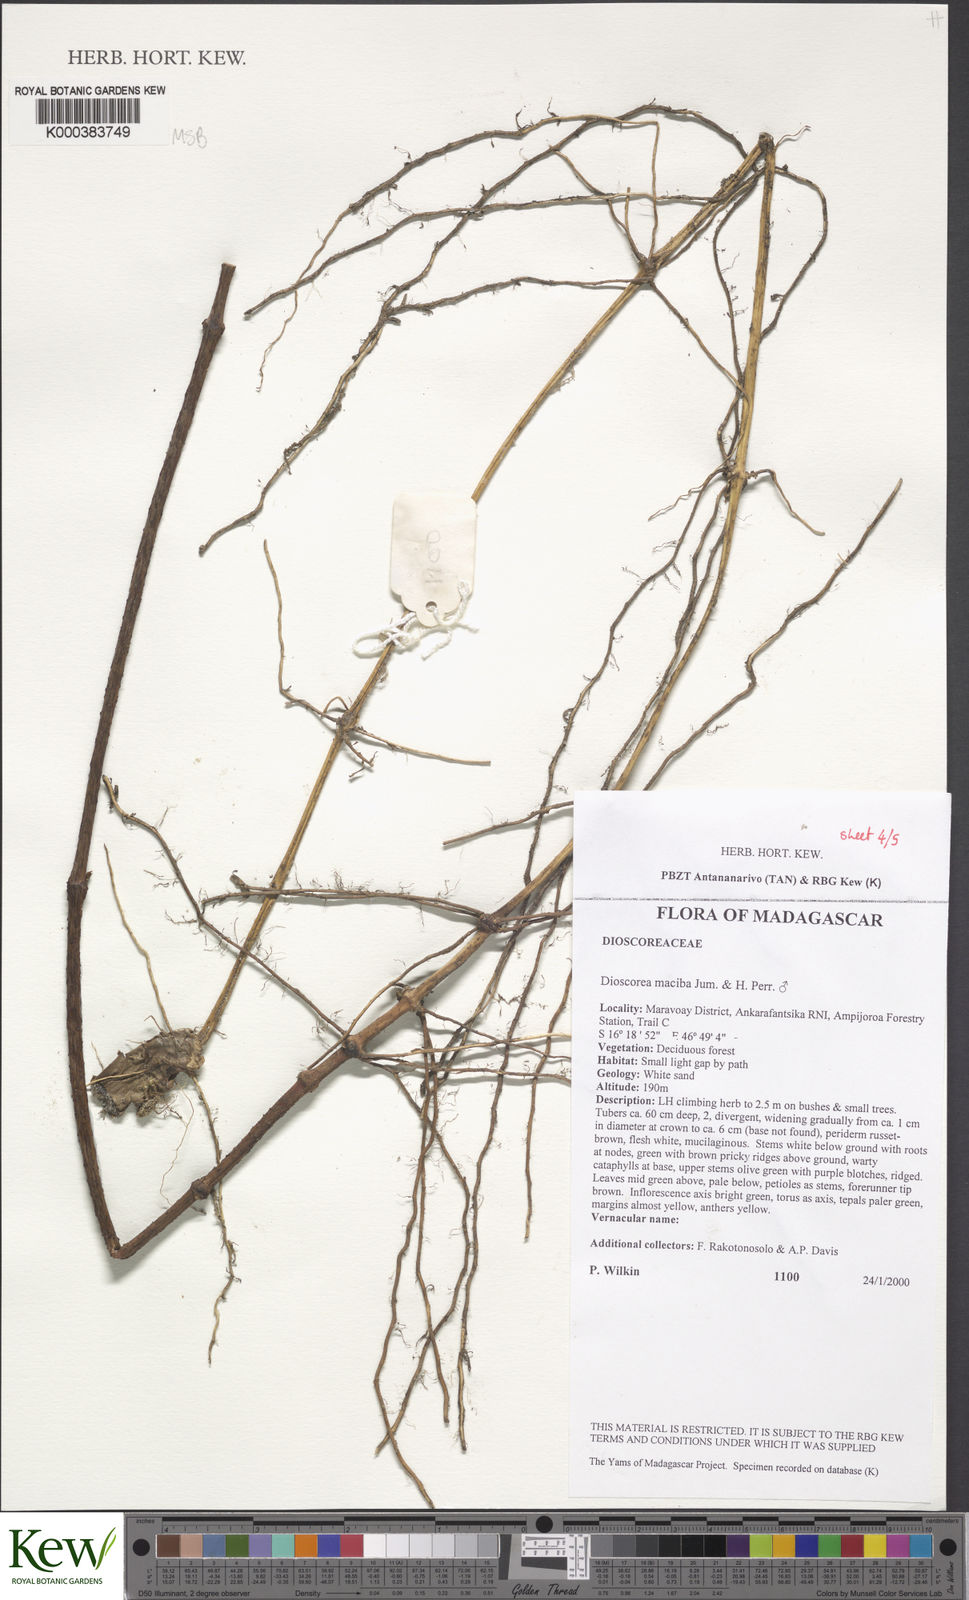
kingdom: Plantae
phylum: Tracheophyta
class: Liliopsida
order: Dioscoreales
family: Dioscoreaceae
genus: Dioscorea
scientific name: Dioscorea
